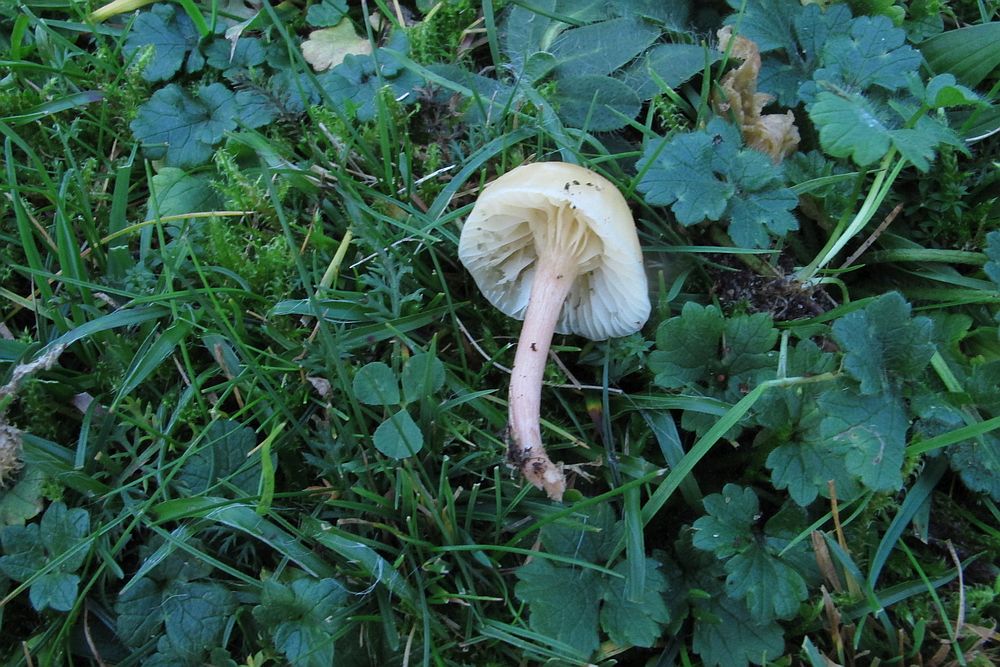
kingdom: Fungi
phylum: Basidiomycota
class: Agaricomycetes
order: Agaricales
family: Hygrophoraceae
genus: Cuphophyllus
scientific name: Cuphophyllus russocoriaceus
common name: ruslæder-vokshat
